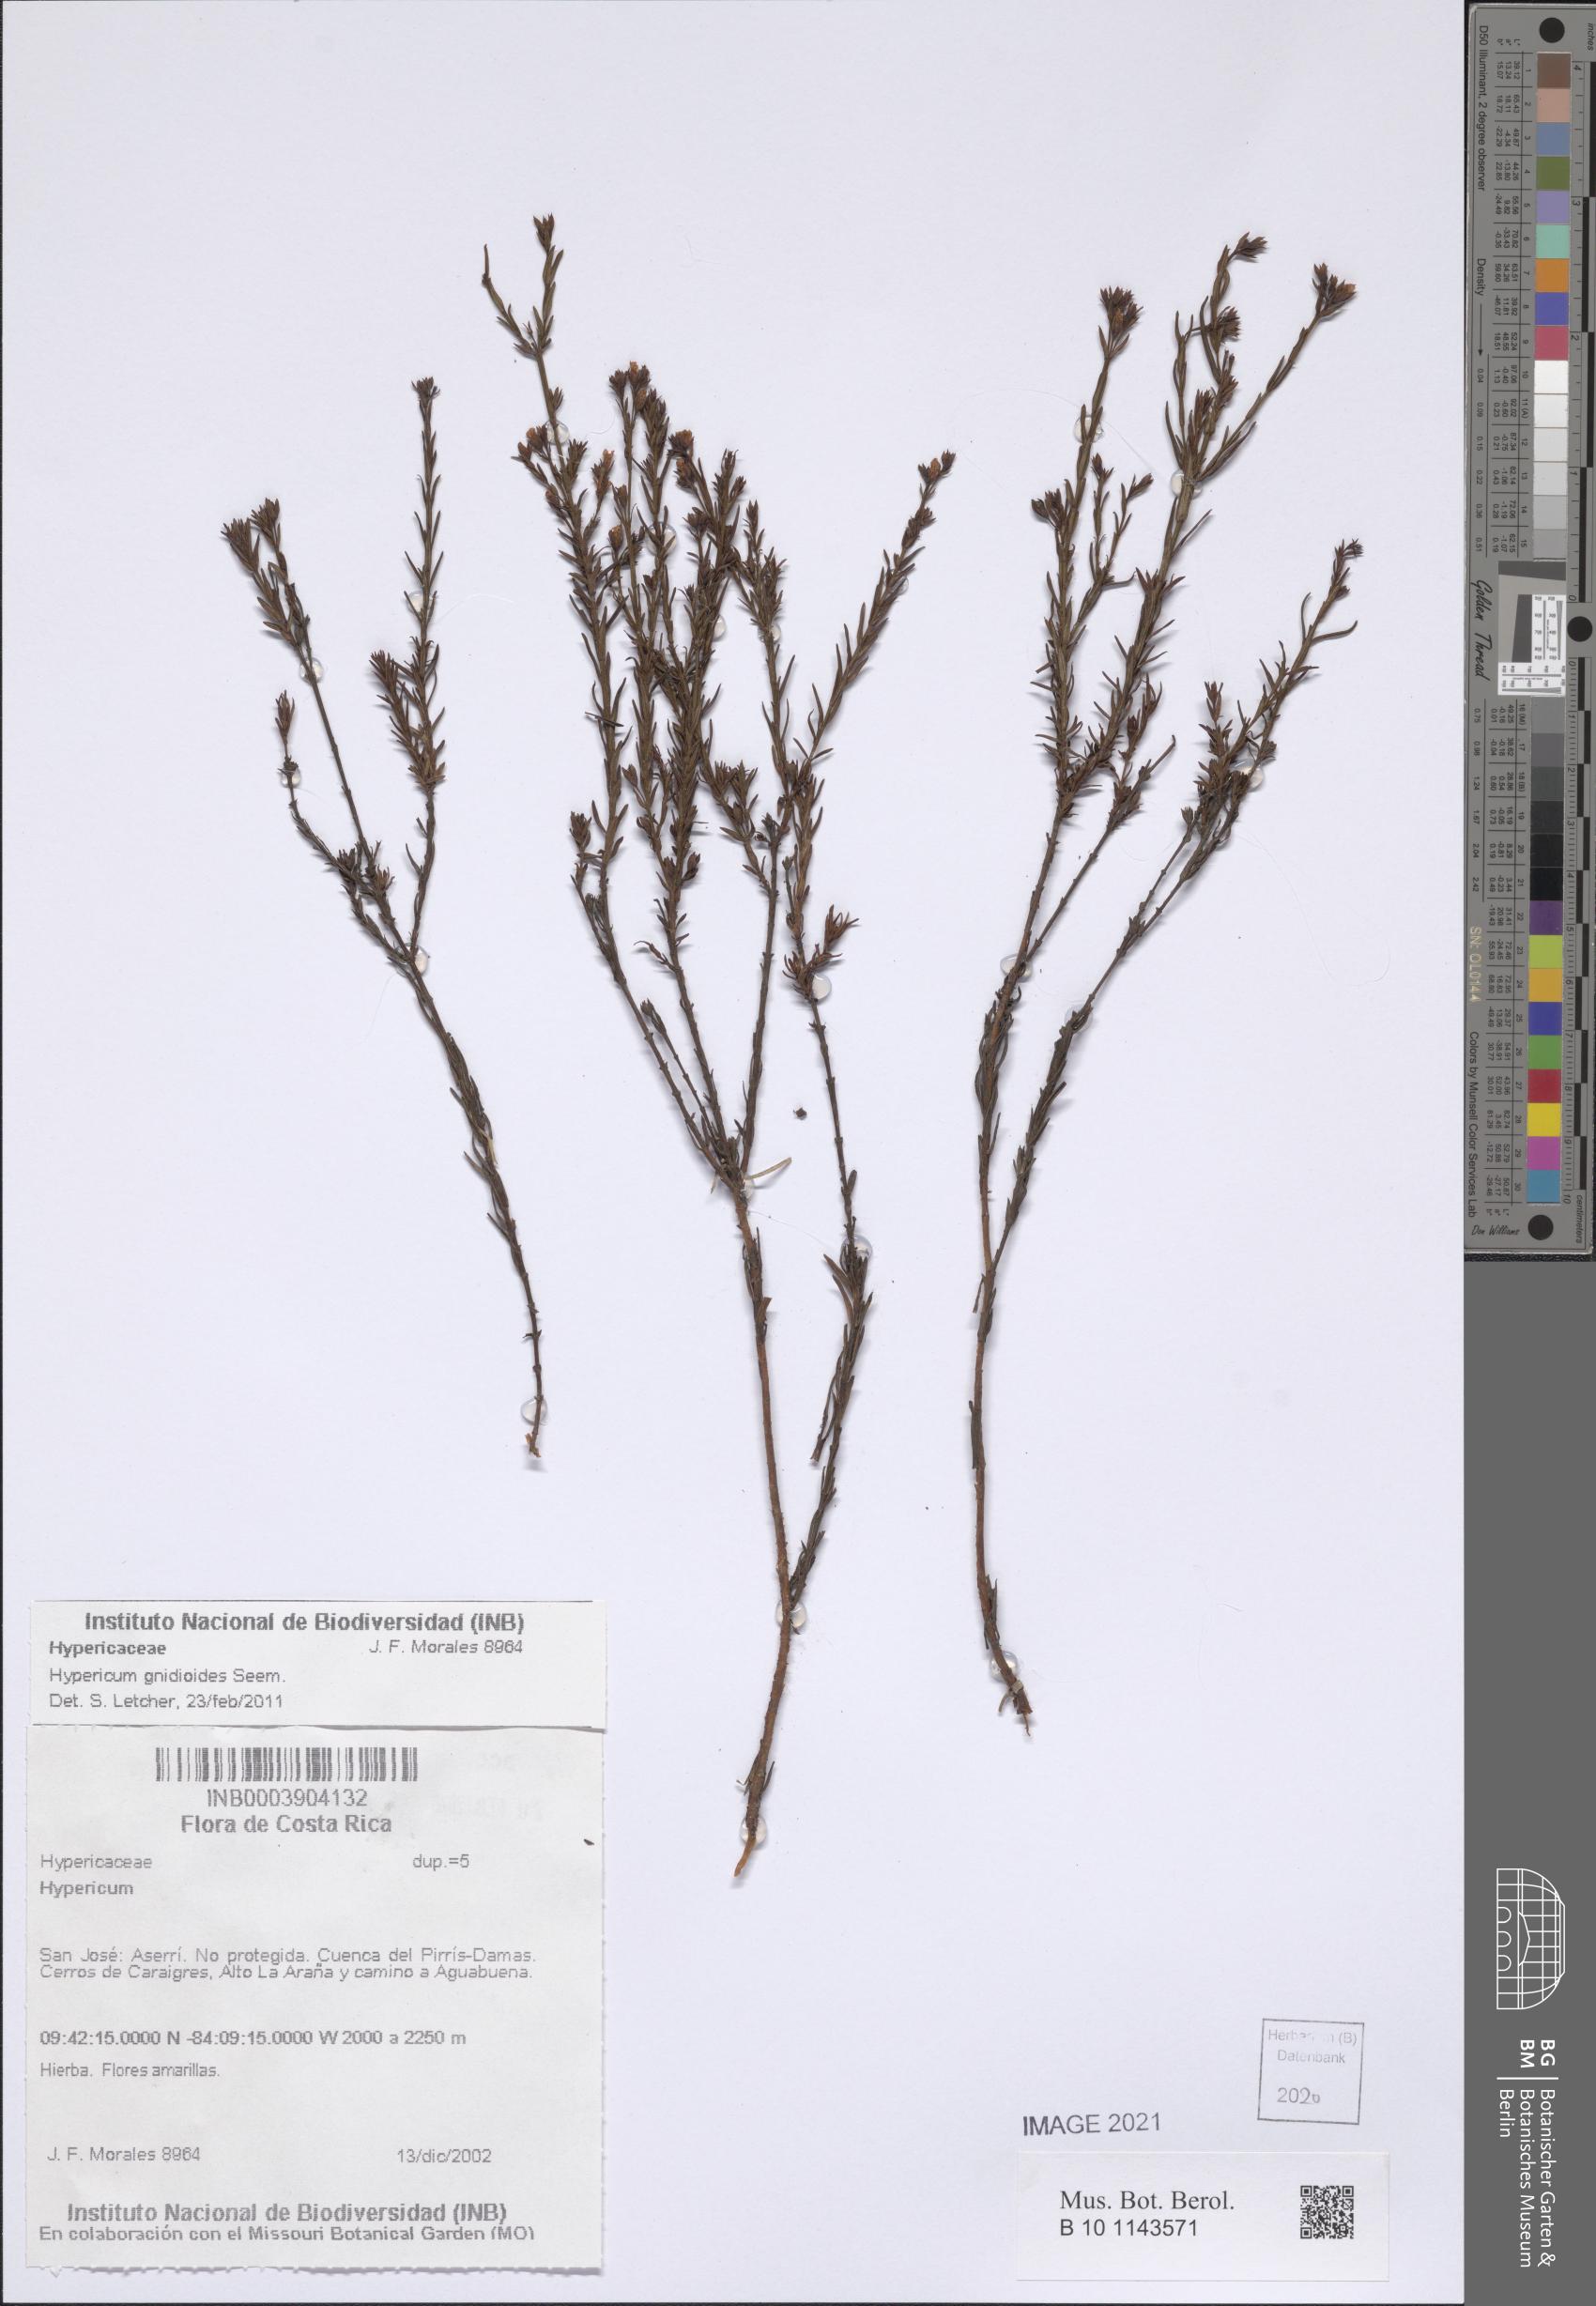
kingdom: Plantae
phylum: Tracheophyta
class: Magnoliopsida
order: Malpighiales
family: Hypericaceae
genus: Hypericum
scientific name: Hypericum gnidioides
